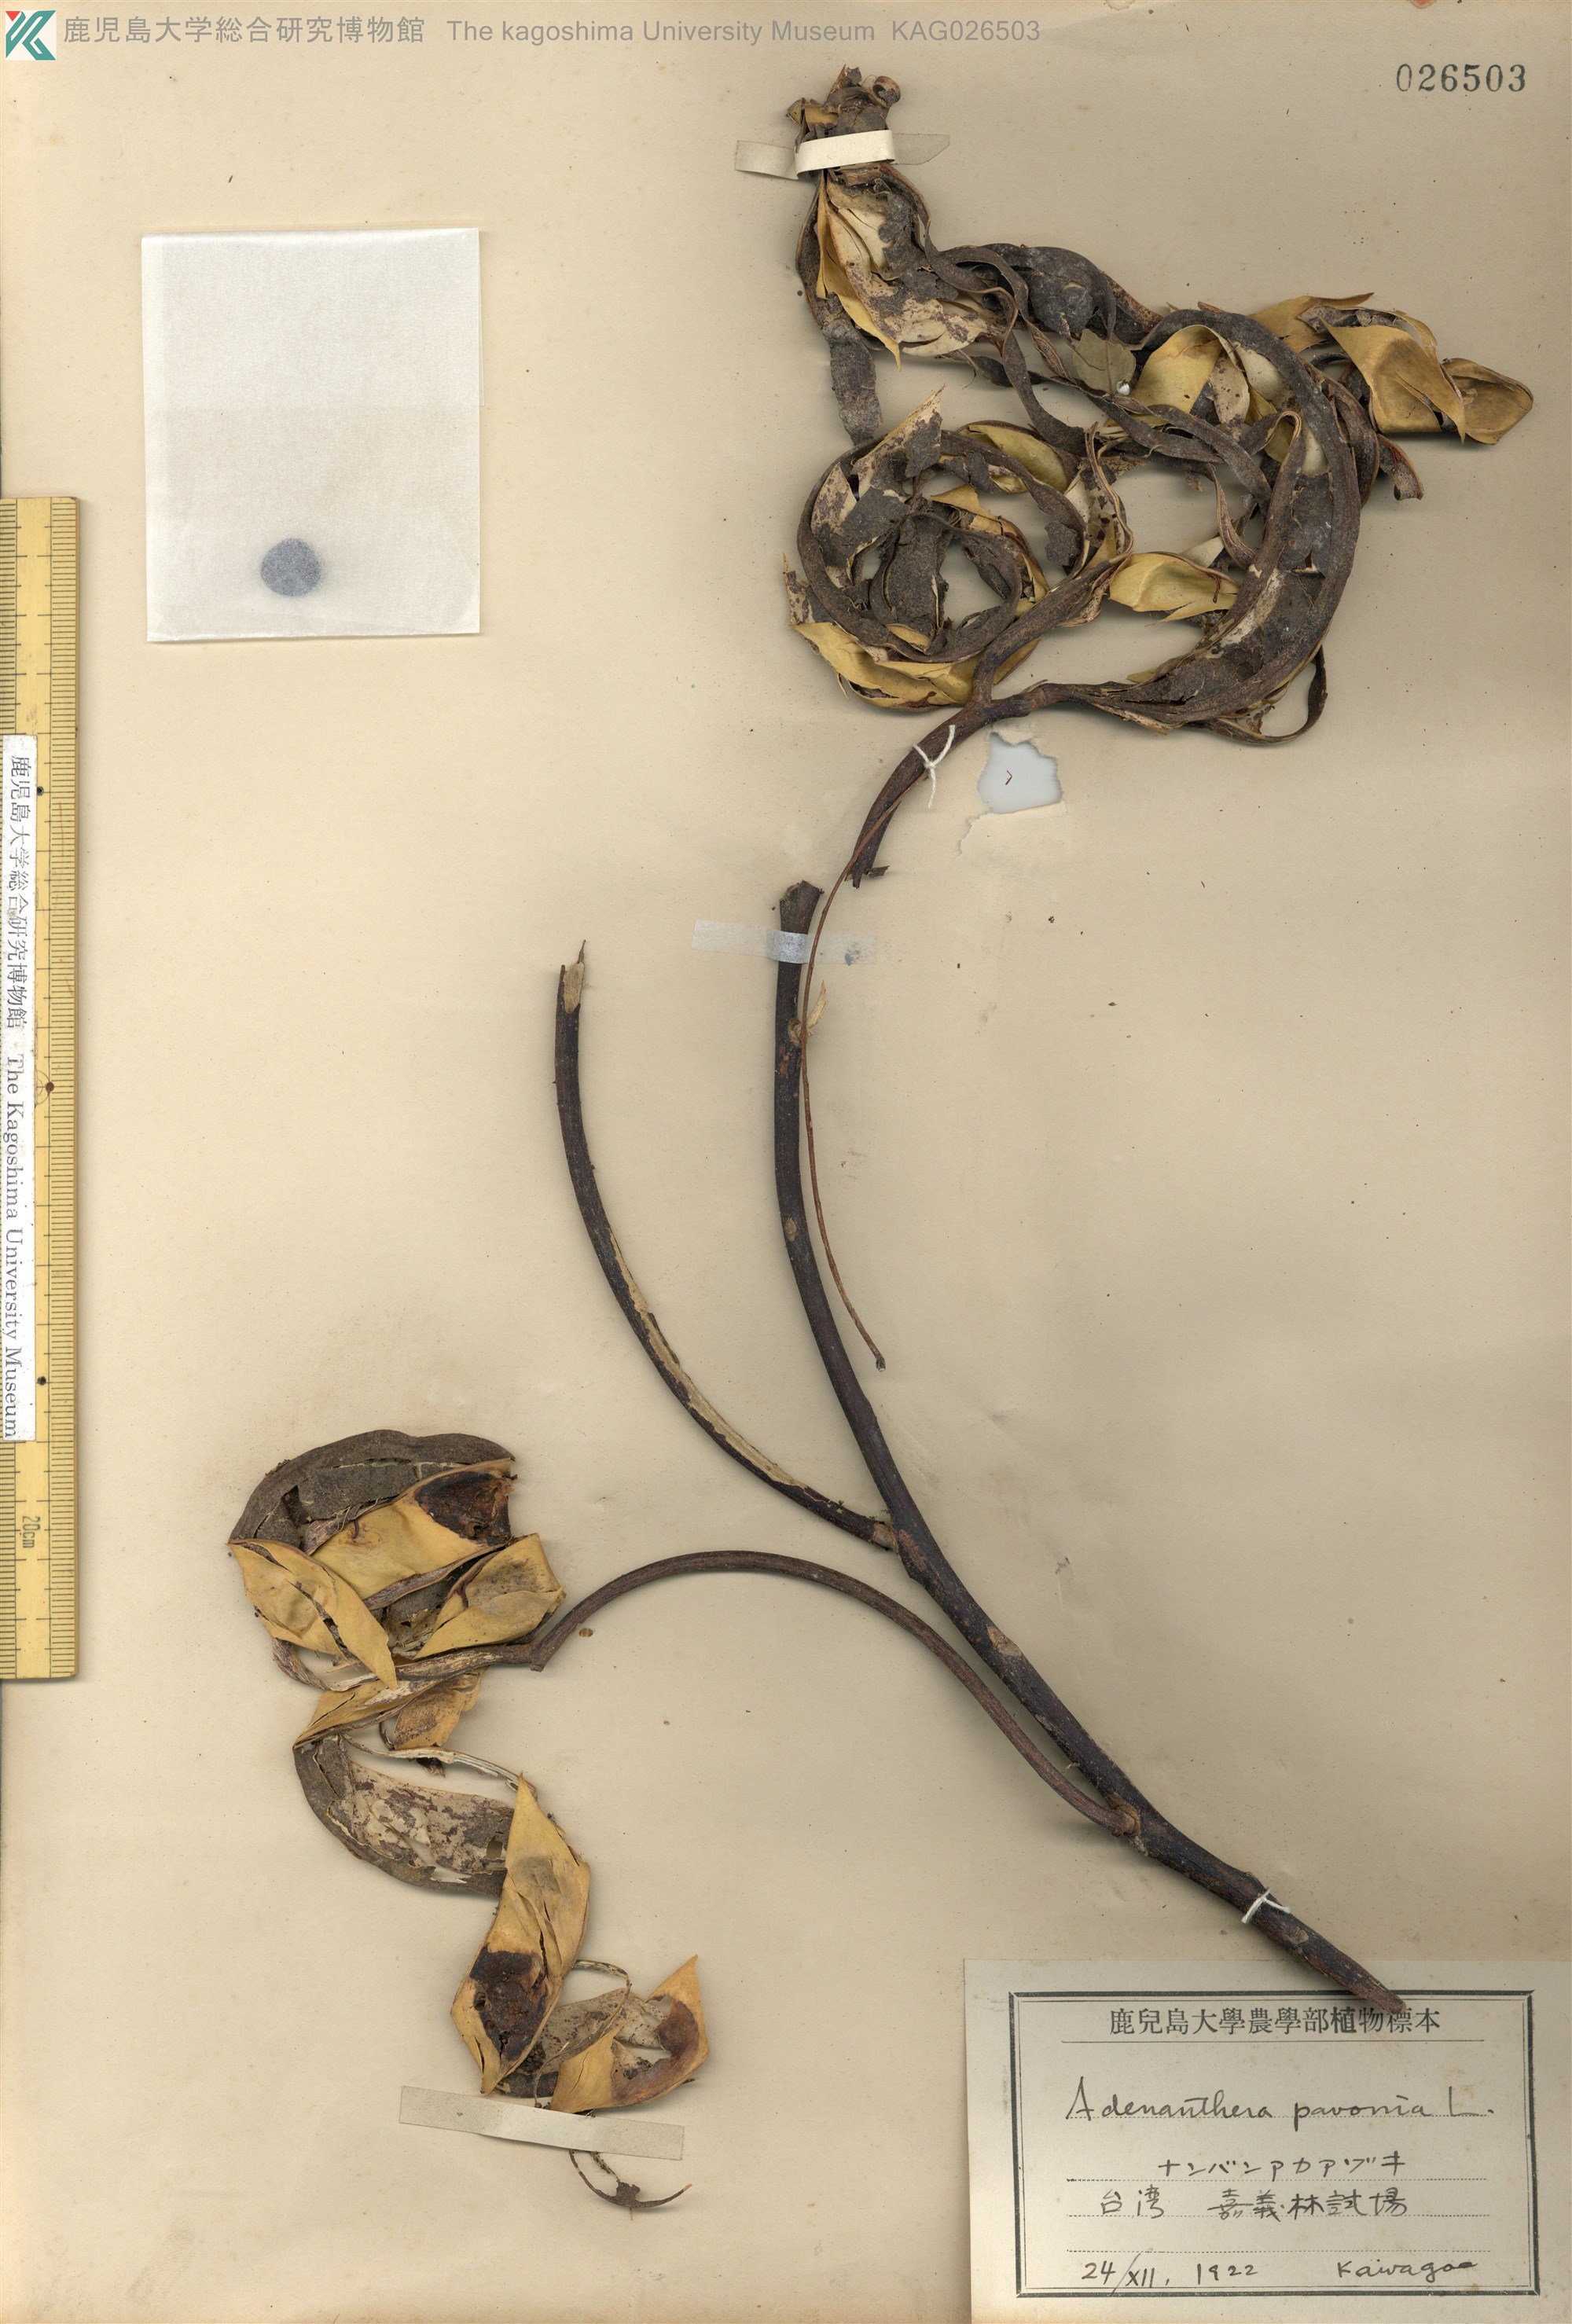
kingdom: Plantae
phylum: Tracheophyta
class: Magnoliopsida
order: Fabales
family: Fabaceae
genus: Adenanthera
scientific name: Adenanthera pavonina
